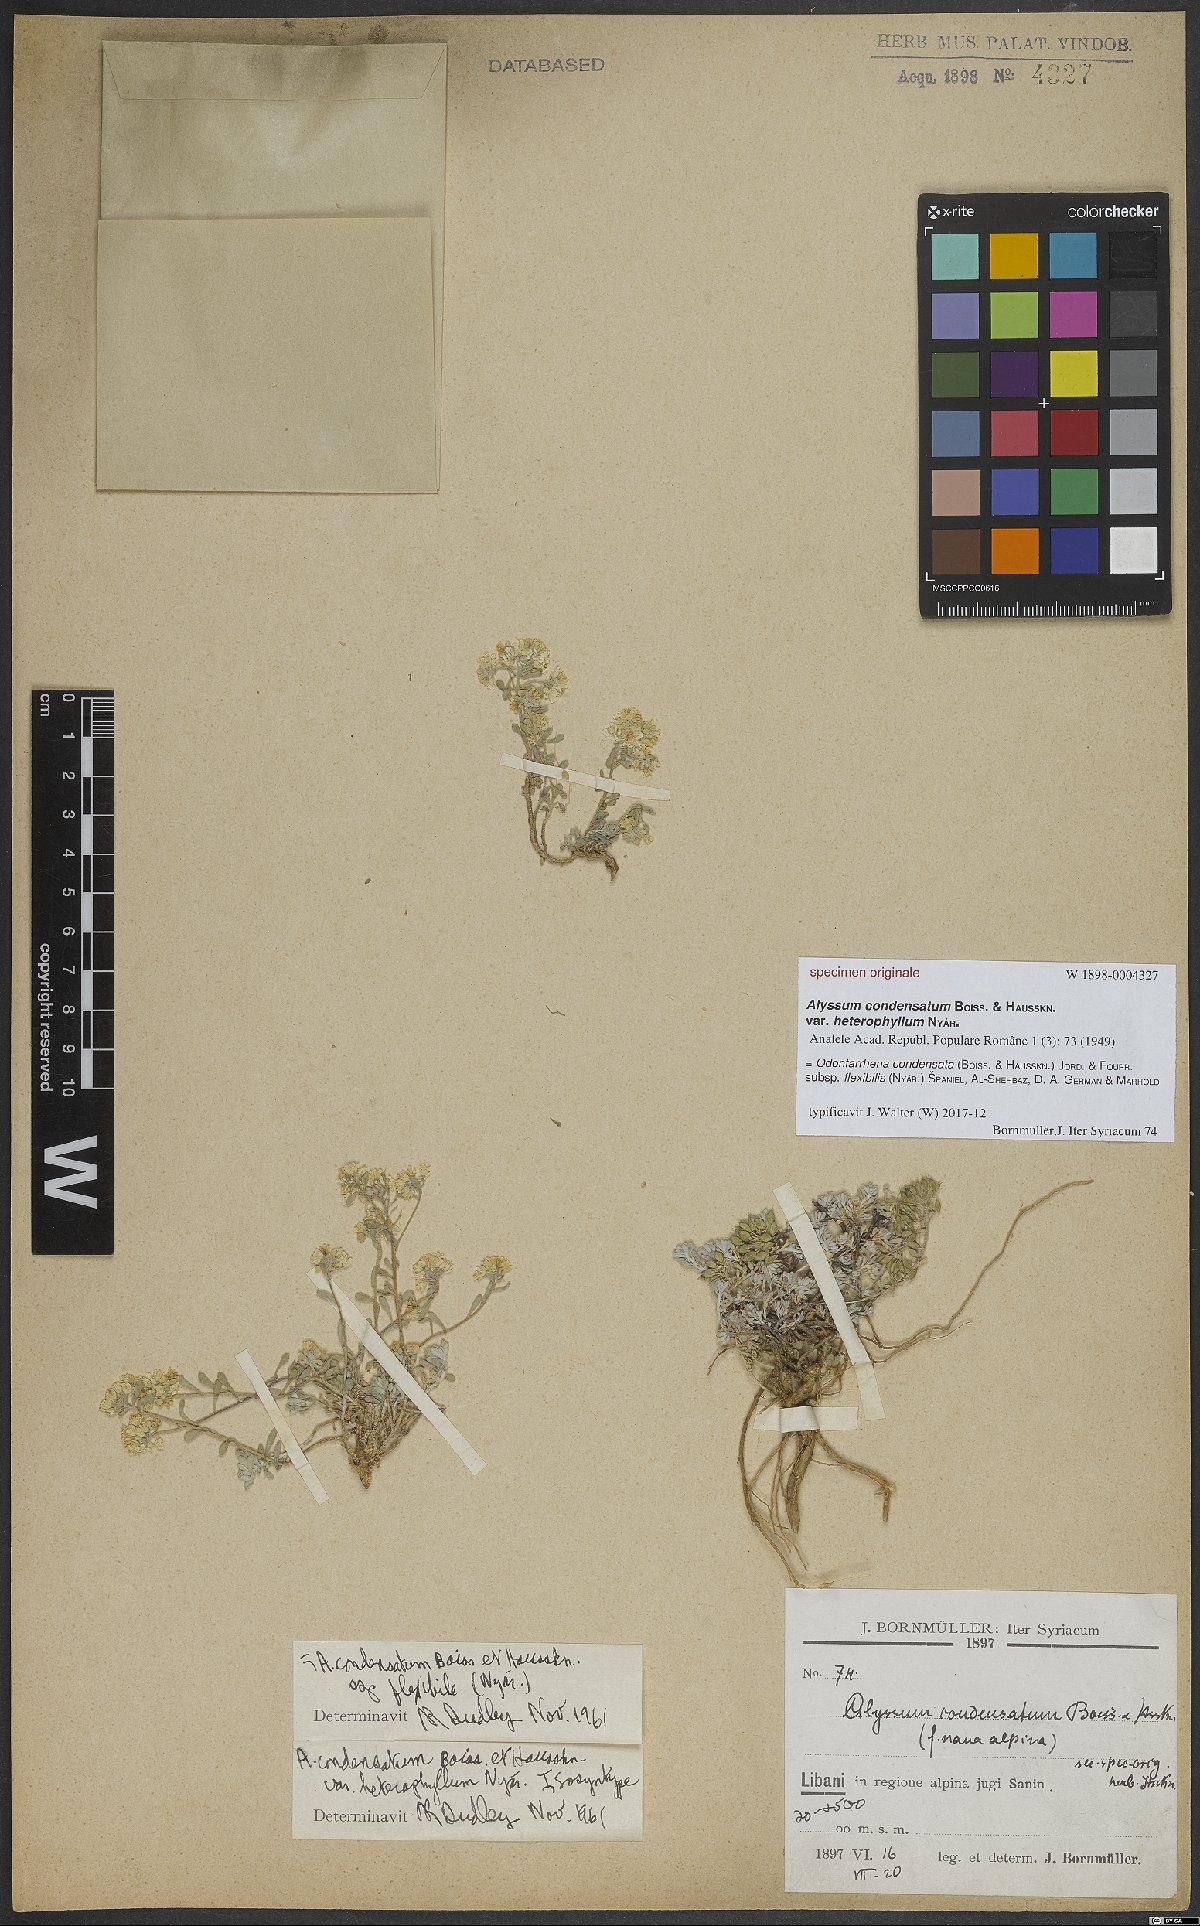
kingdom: Plantae
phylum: Tracheophyta
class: Magnoliopsida
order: Brassicales
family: Brassicaceae
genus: Odontarrhena
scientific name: Odontarrhena condensata
